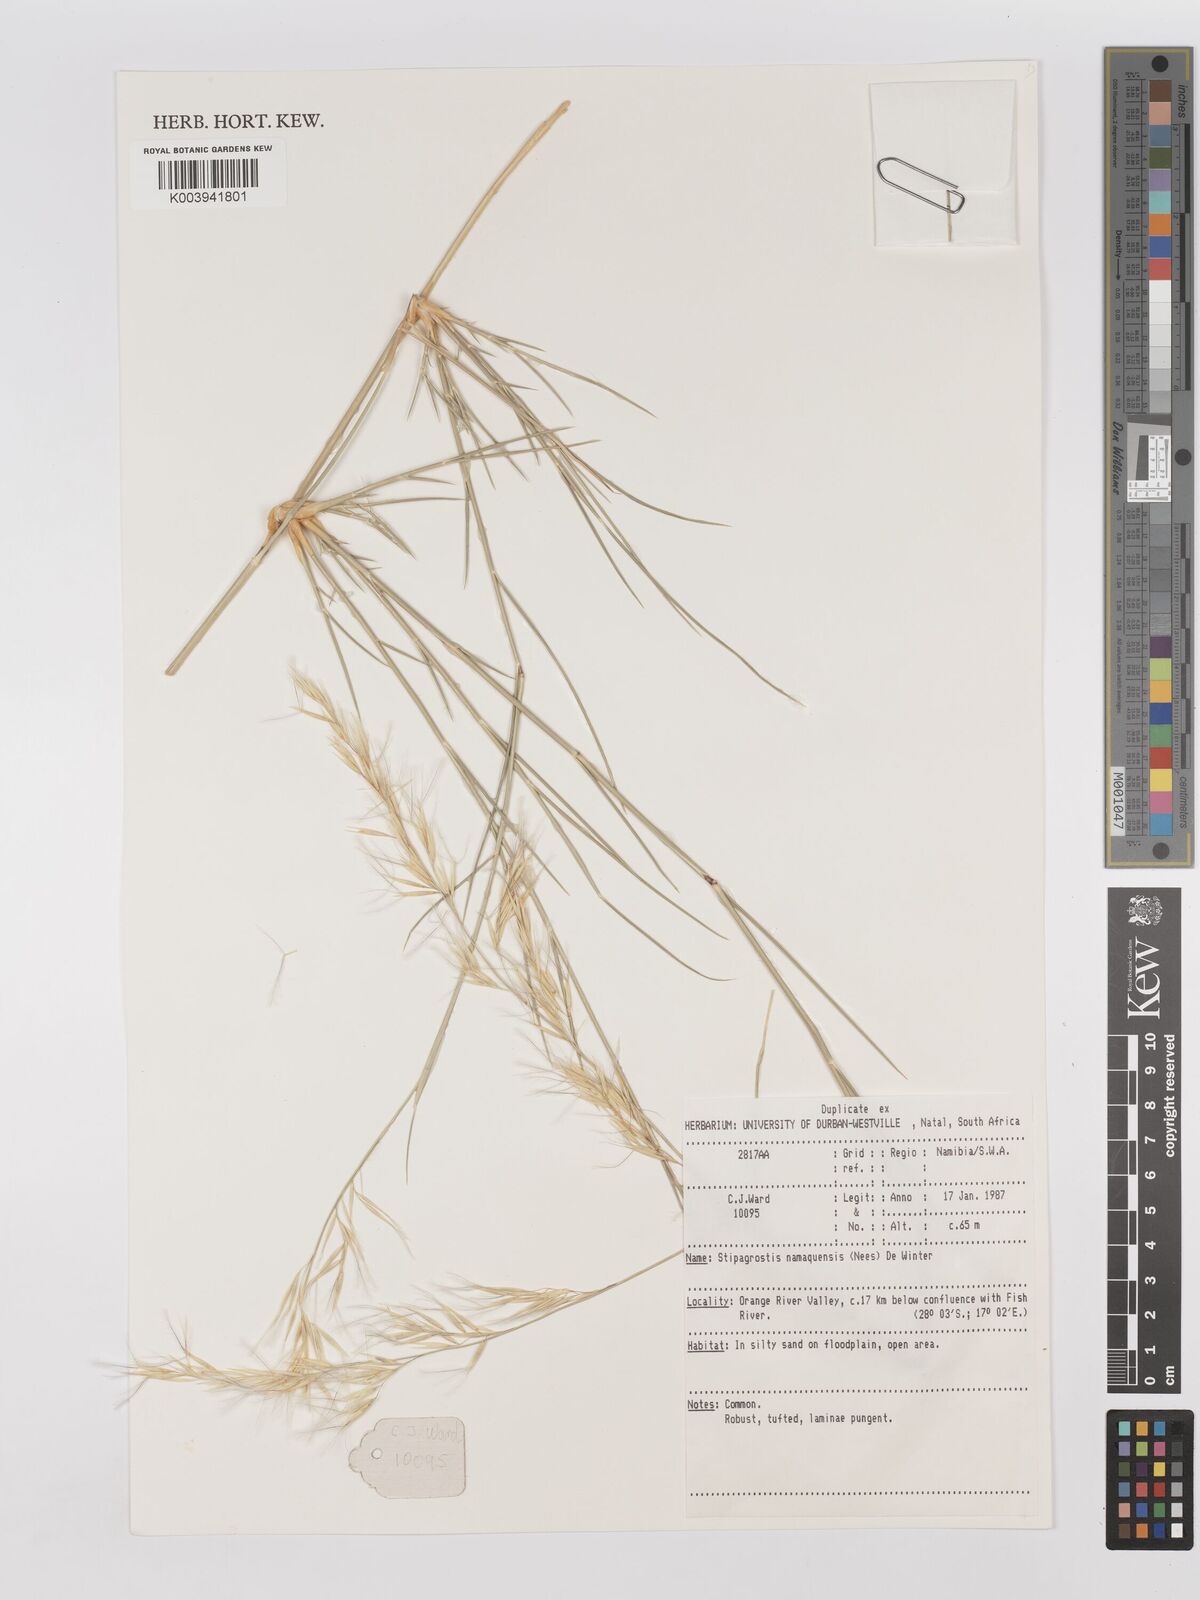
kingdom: Plantae
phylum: Tracheophyta
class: Liliopsida
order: Poales
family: Poaceae
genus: Stipagrostis
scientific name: Stipagrostis namaquensis
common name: River bushman grass
